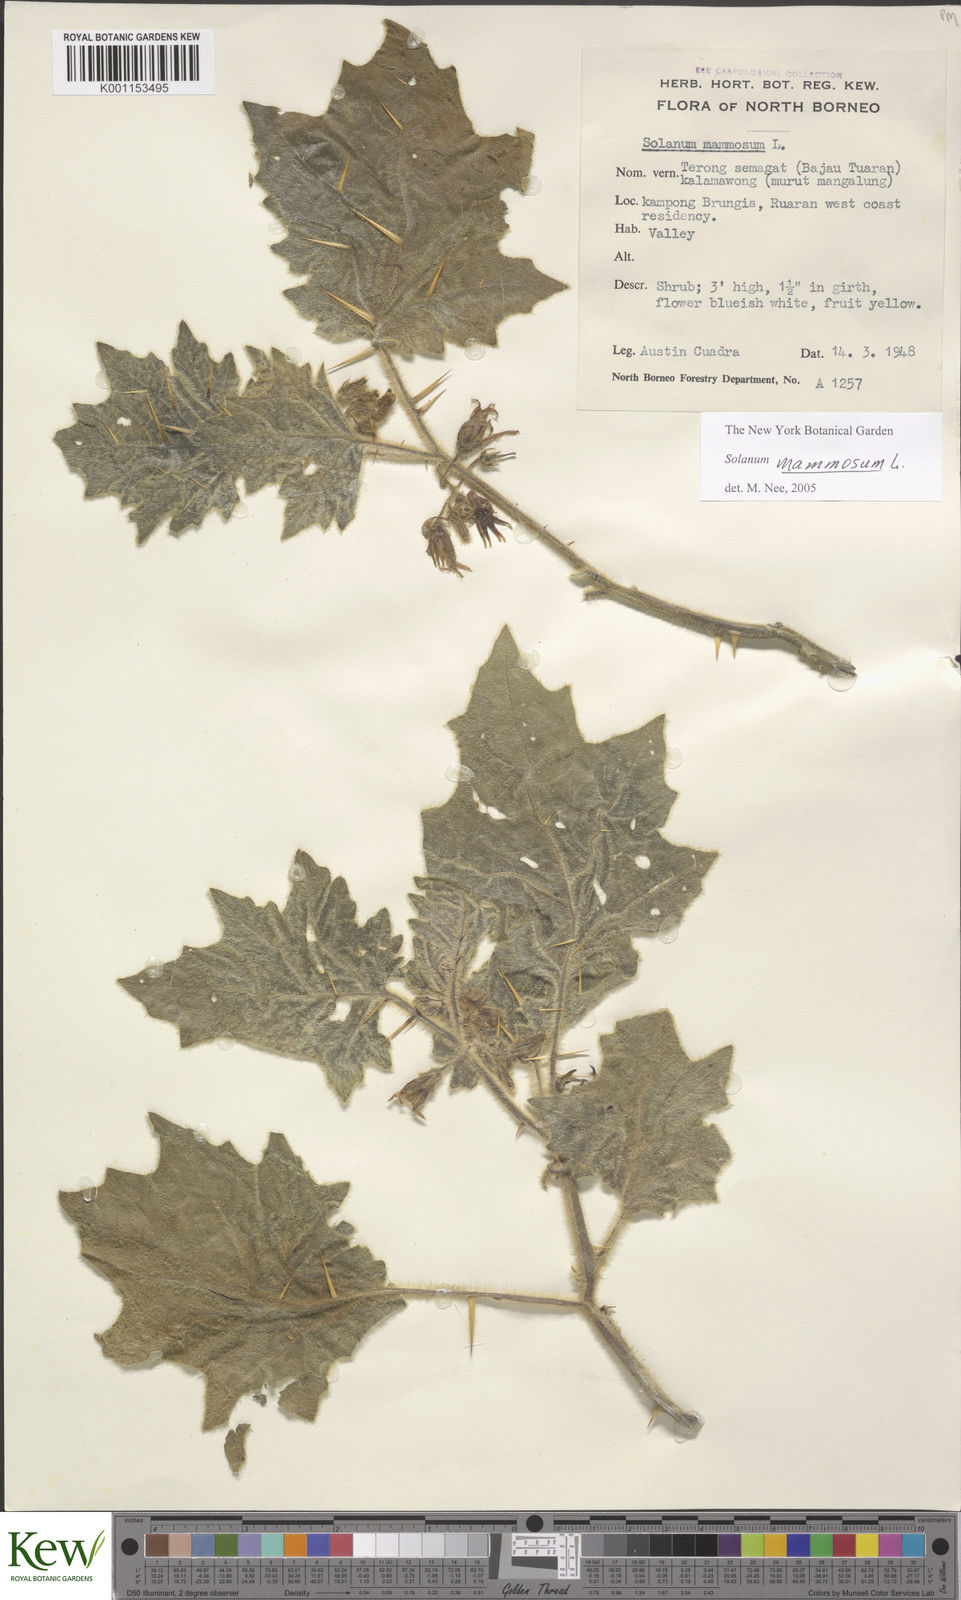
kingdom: Plantae
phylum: Tracheophyta
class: Magnoliopsida
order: Solanales
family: Solanaceae
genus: Solanum
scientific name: Solanum mammosum
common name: Nipple fruit
